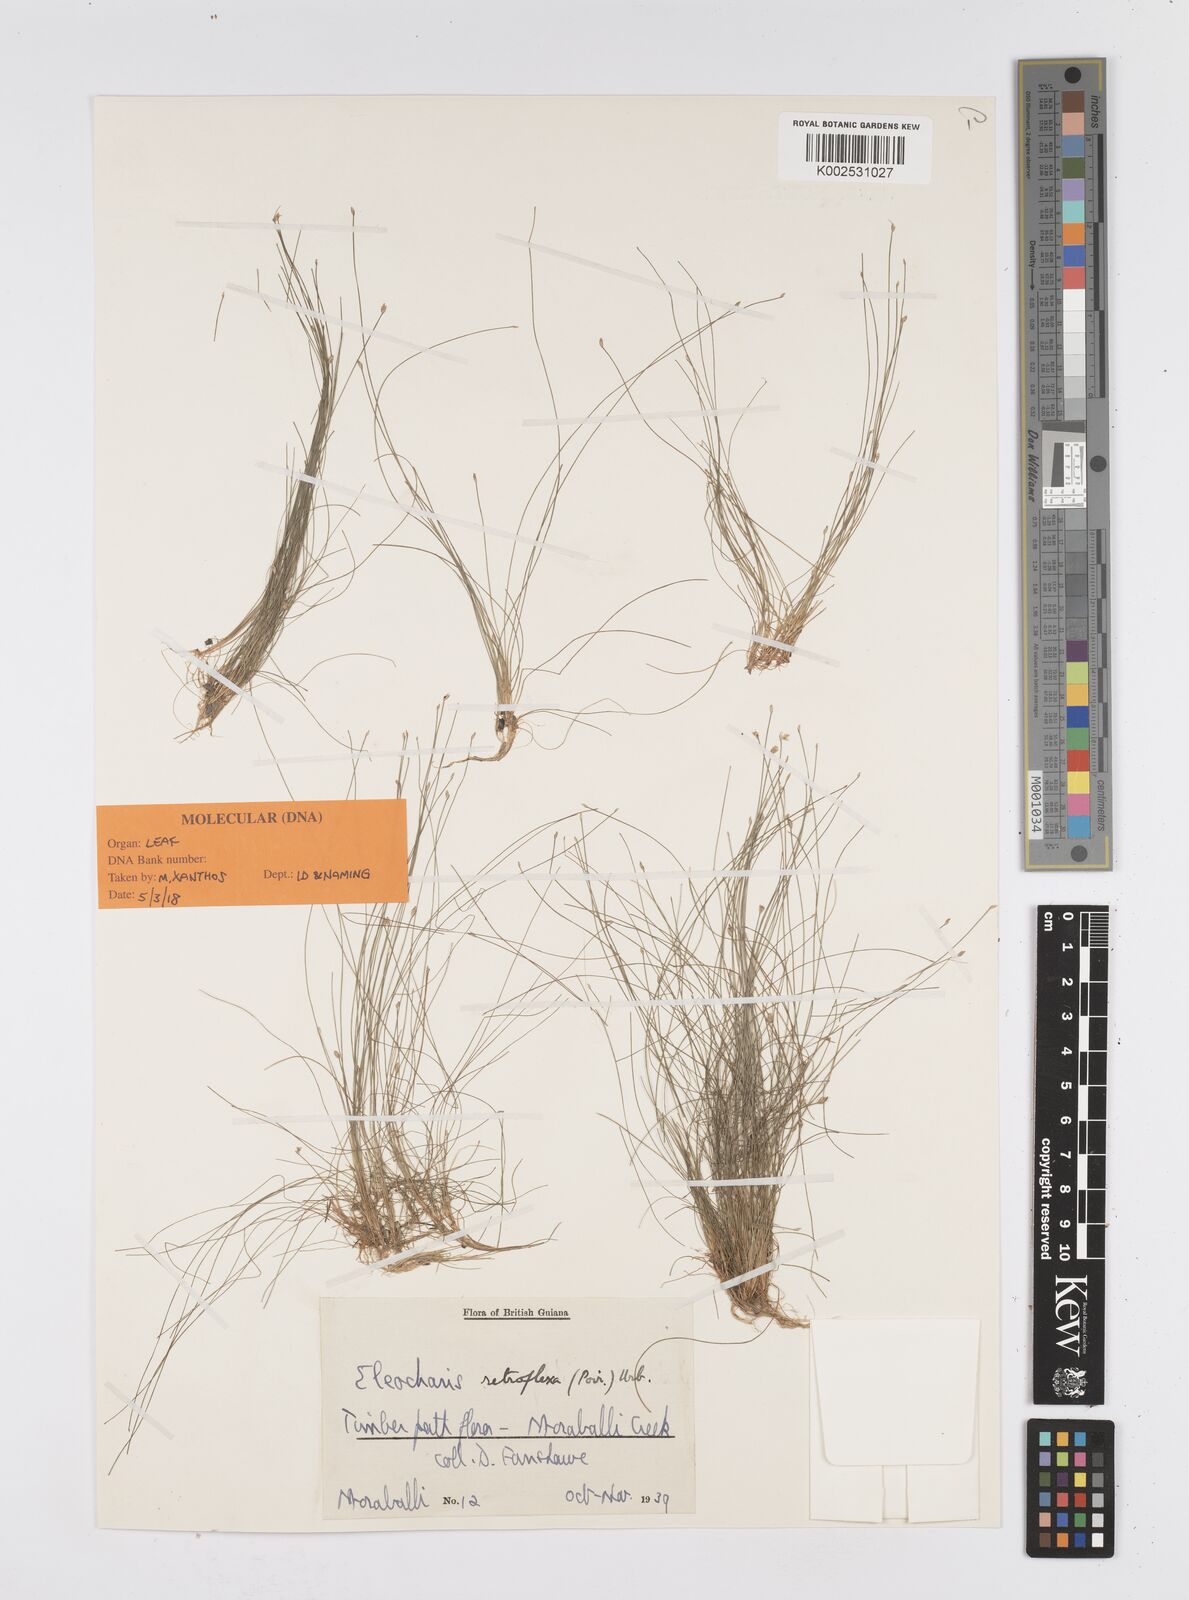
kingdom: Plantae
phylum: Tracheophyta
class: Liliopsida
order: Poales
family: Cyperaceae
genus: Eleocharis
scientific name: Eleocharis retroflexa
